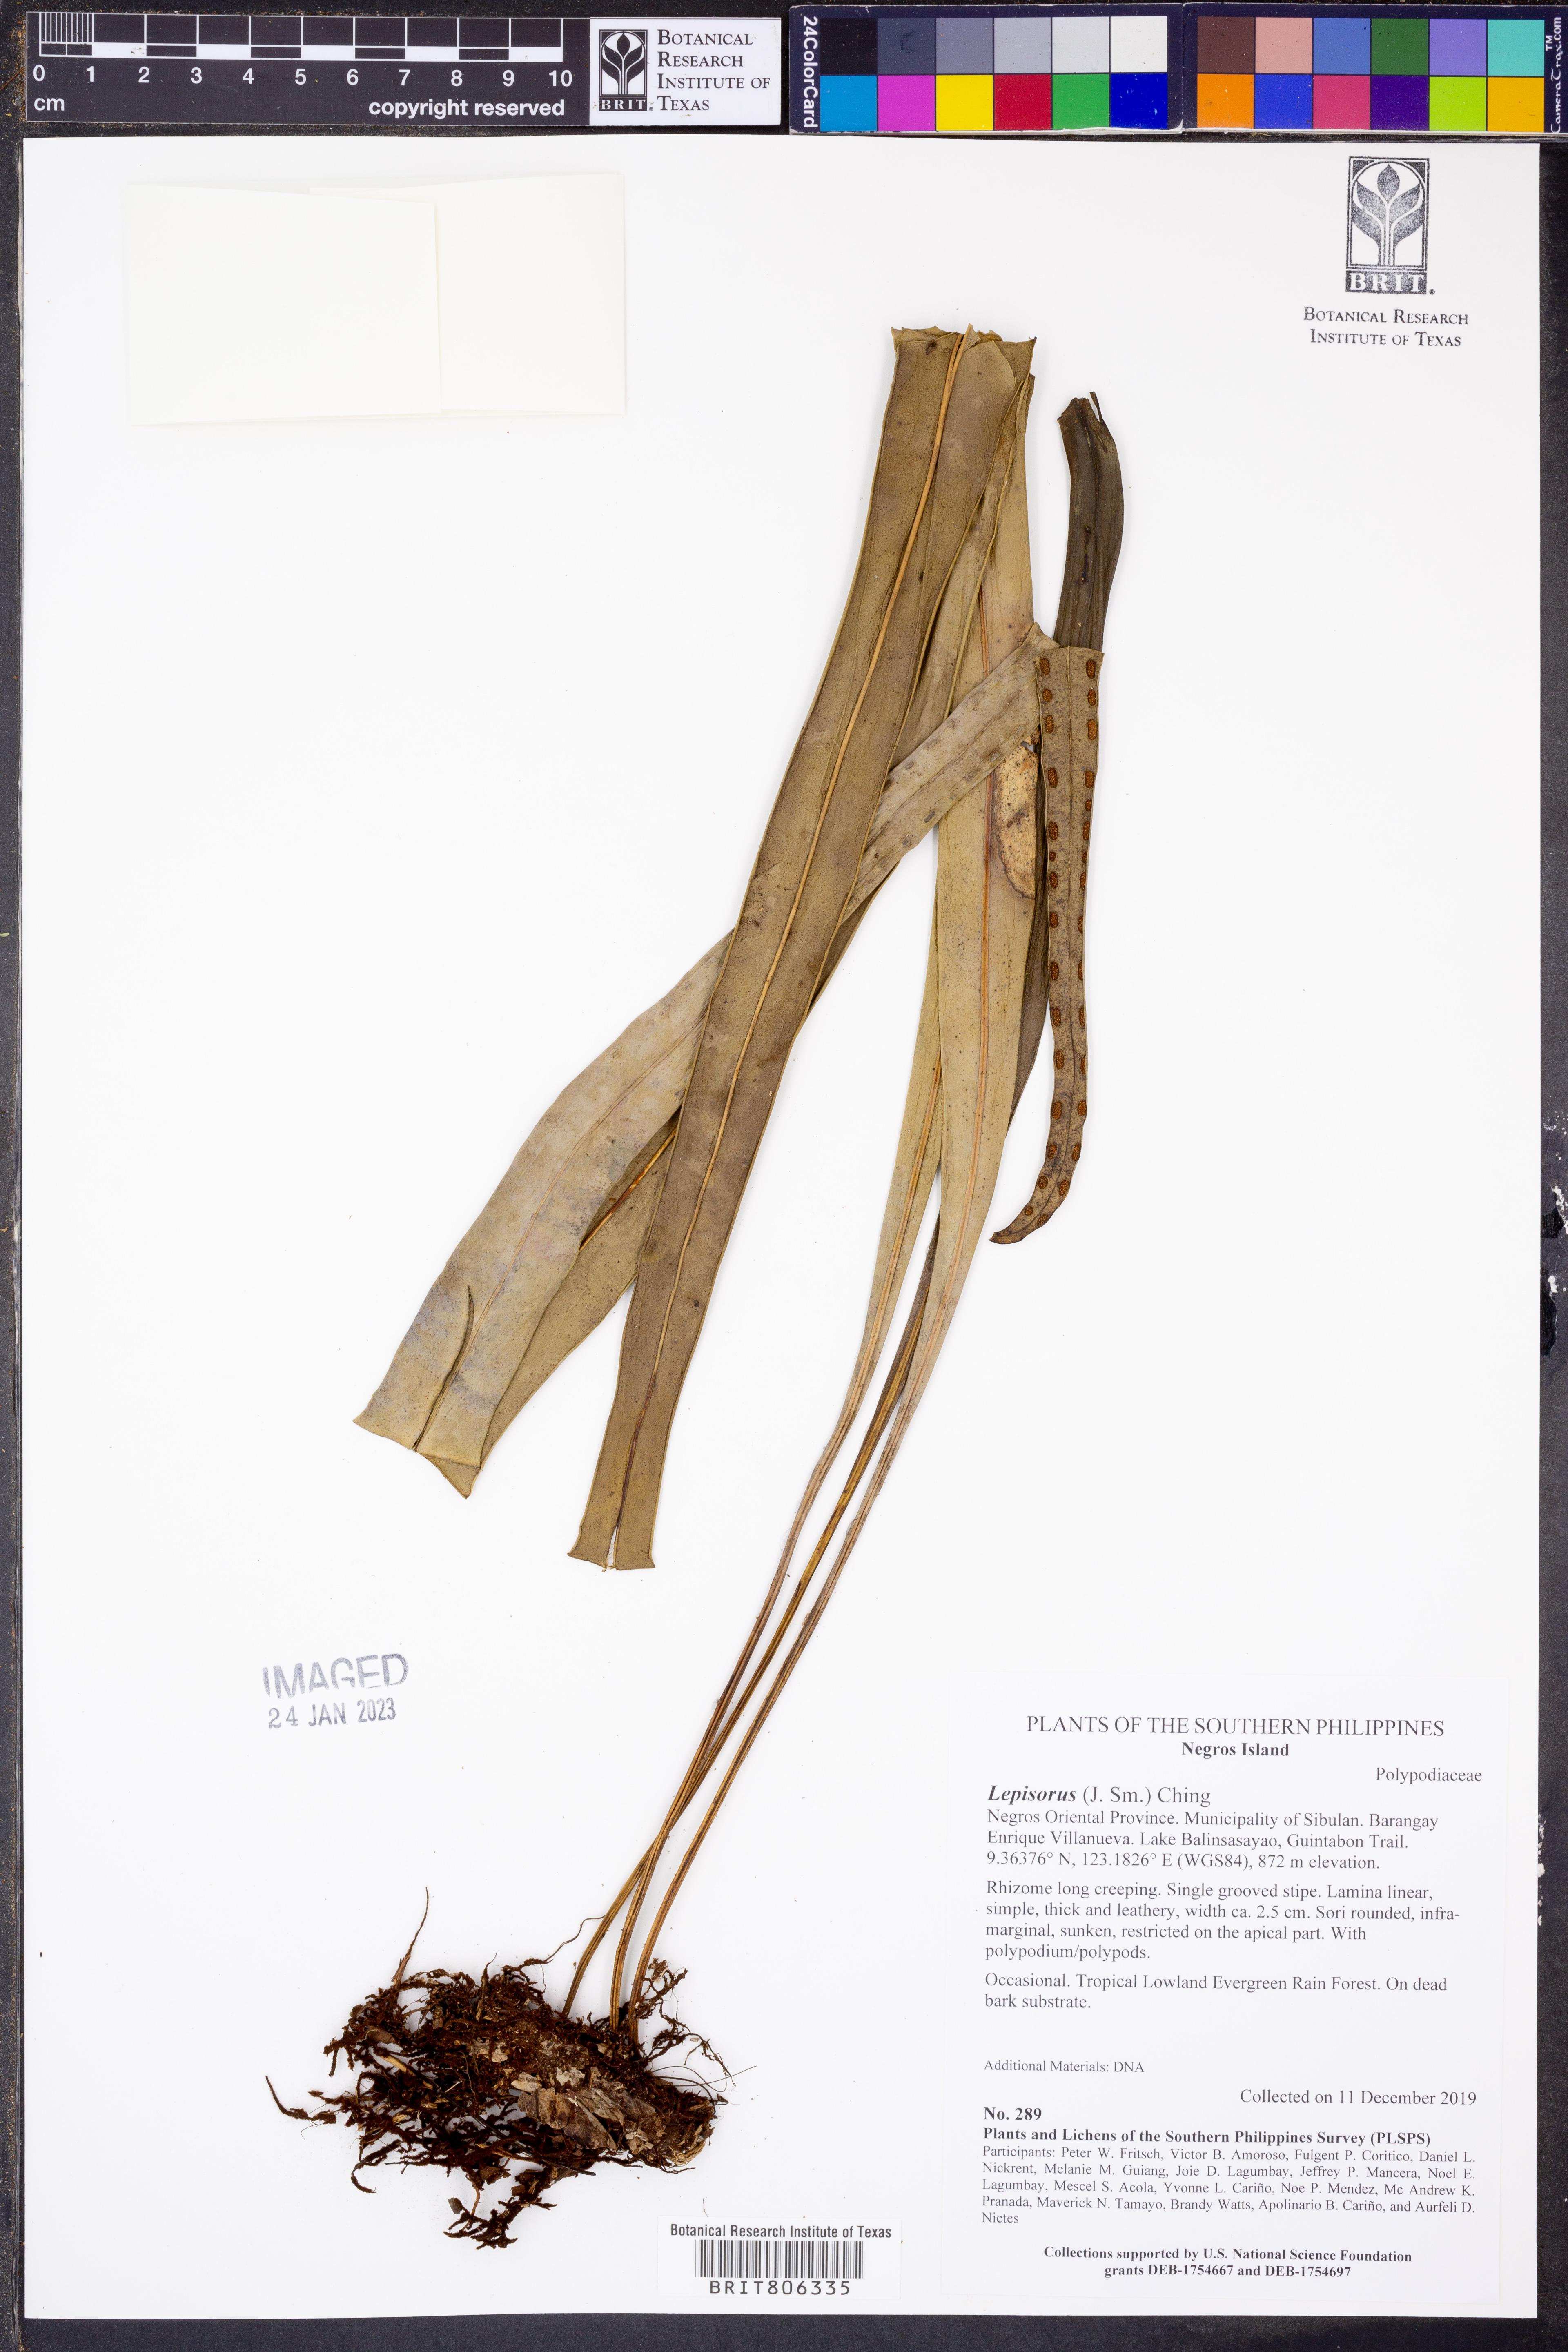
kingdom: Plantae
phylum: Tracheophyta
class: Polypodiopsida
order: Polypodiales
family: Polypodiaceae
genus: Lepisorus
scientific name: Lepisorus
